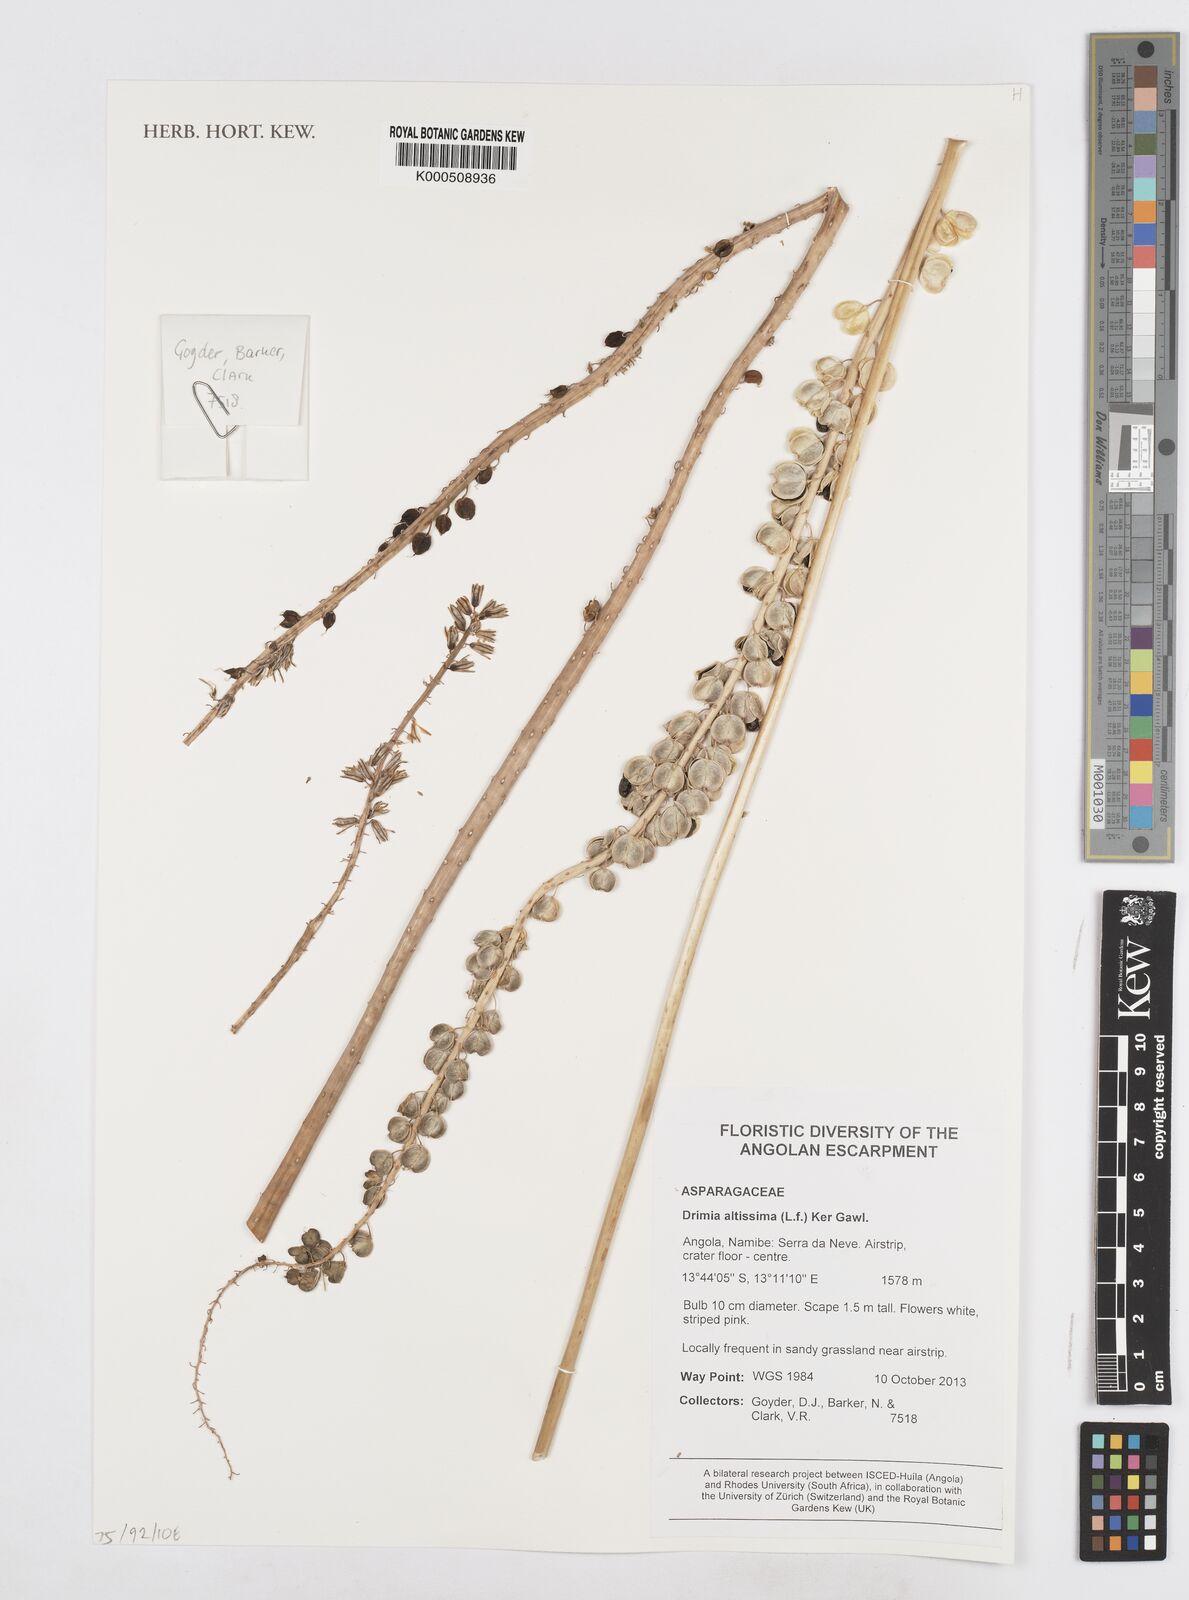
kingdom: Plantae
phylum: Tracheophyta
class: Liliopsida
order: Asparagales
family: Asparagaceae
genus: Drimia
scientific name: Drimia altissima
